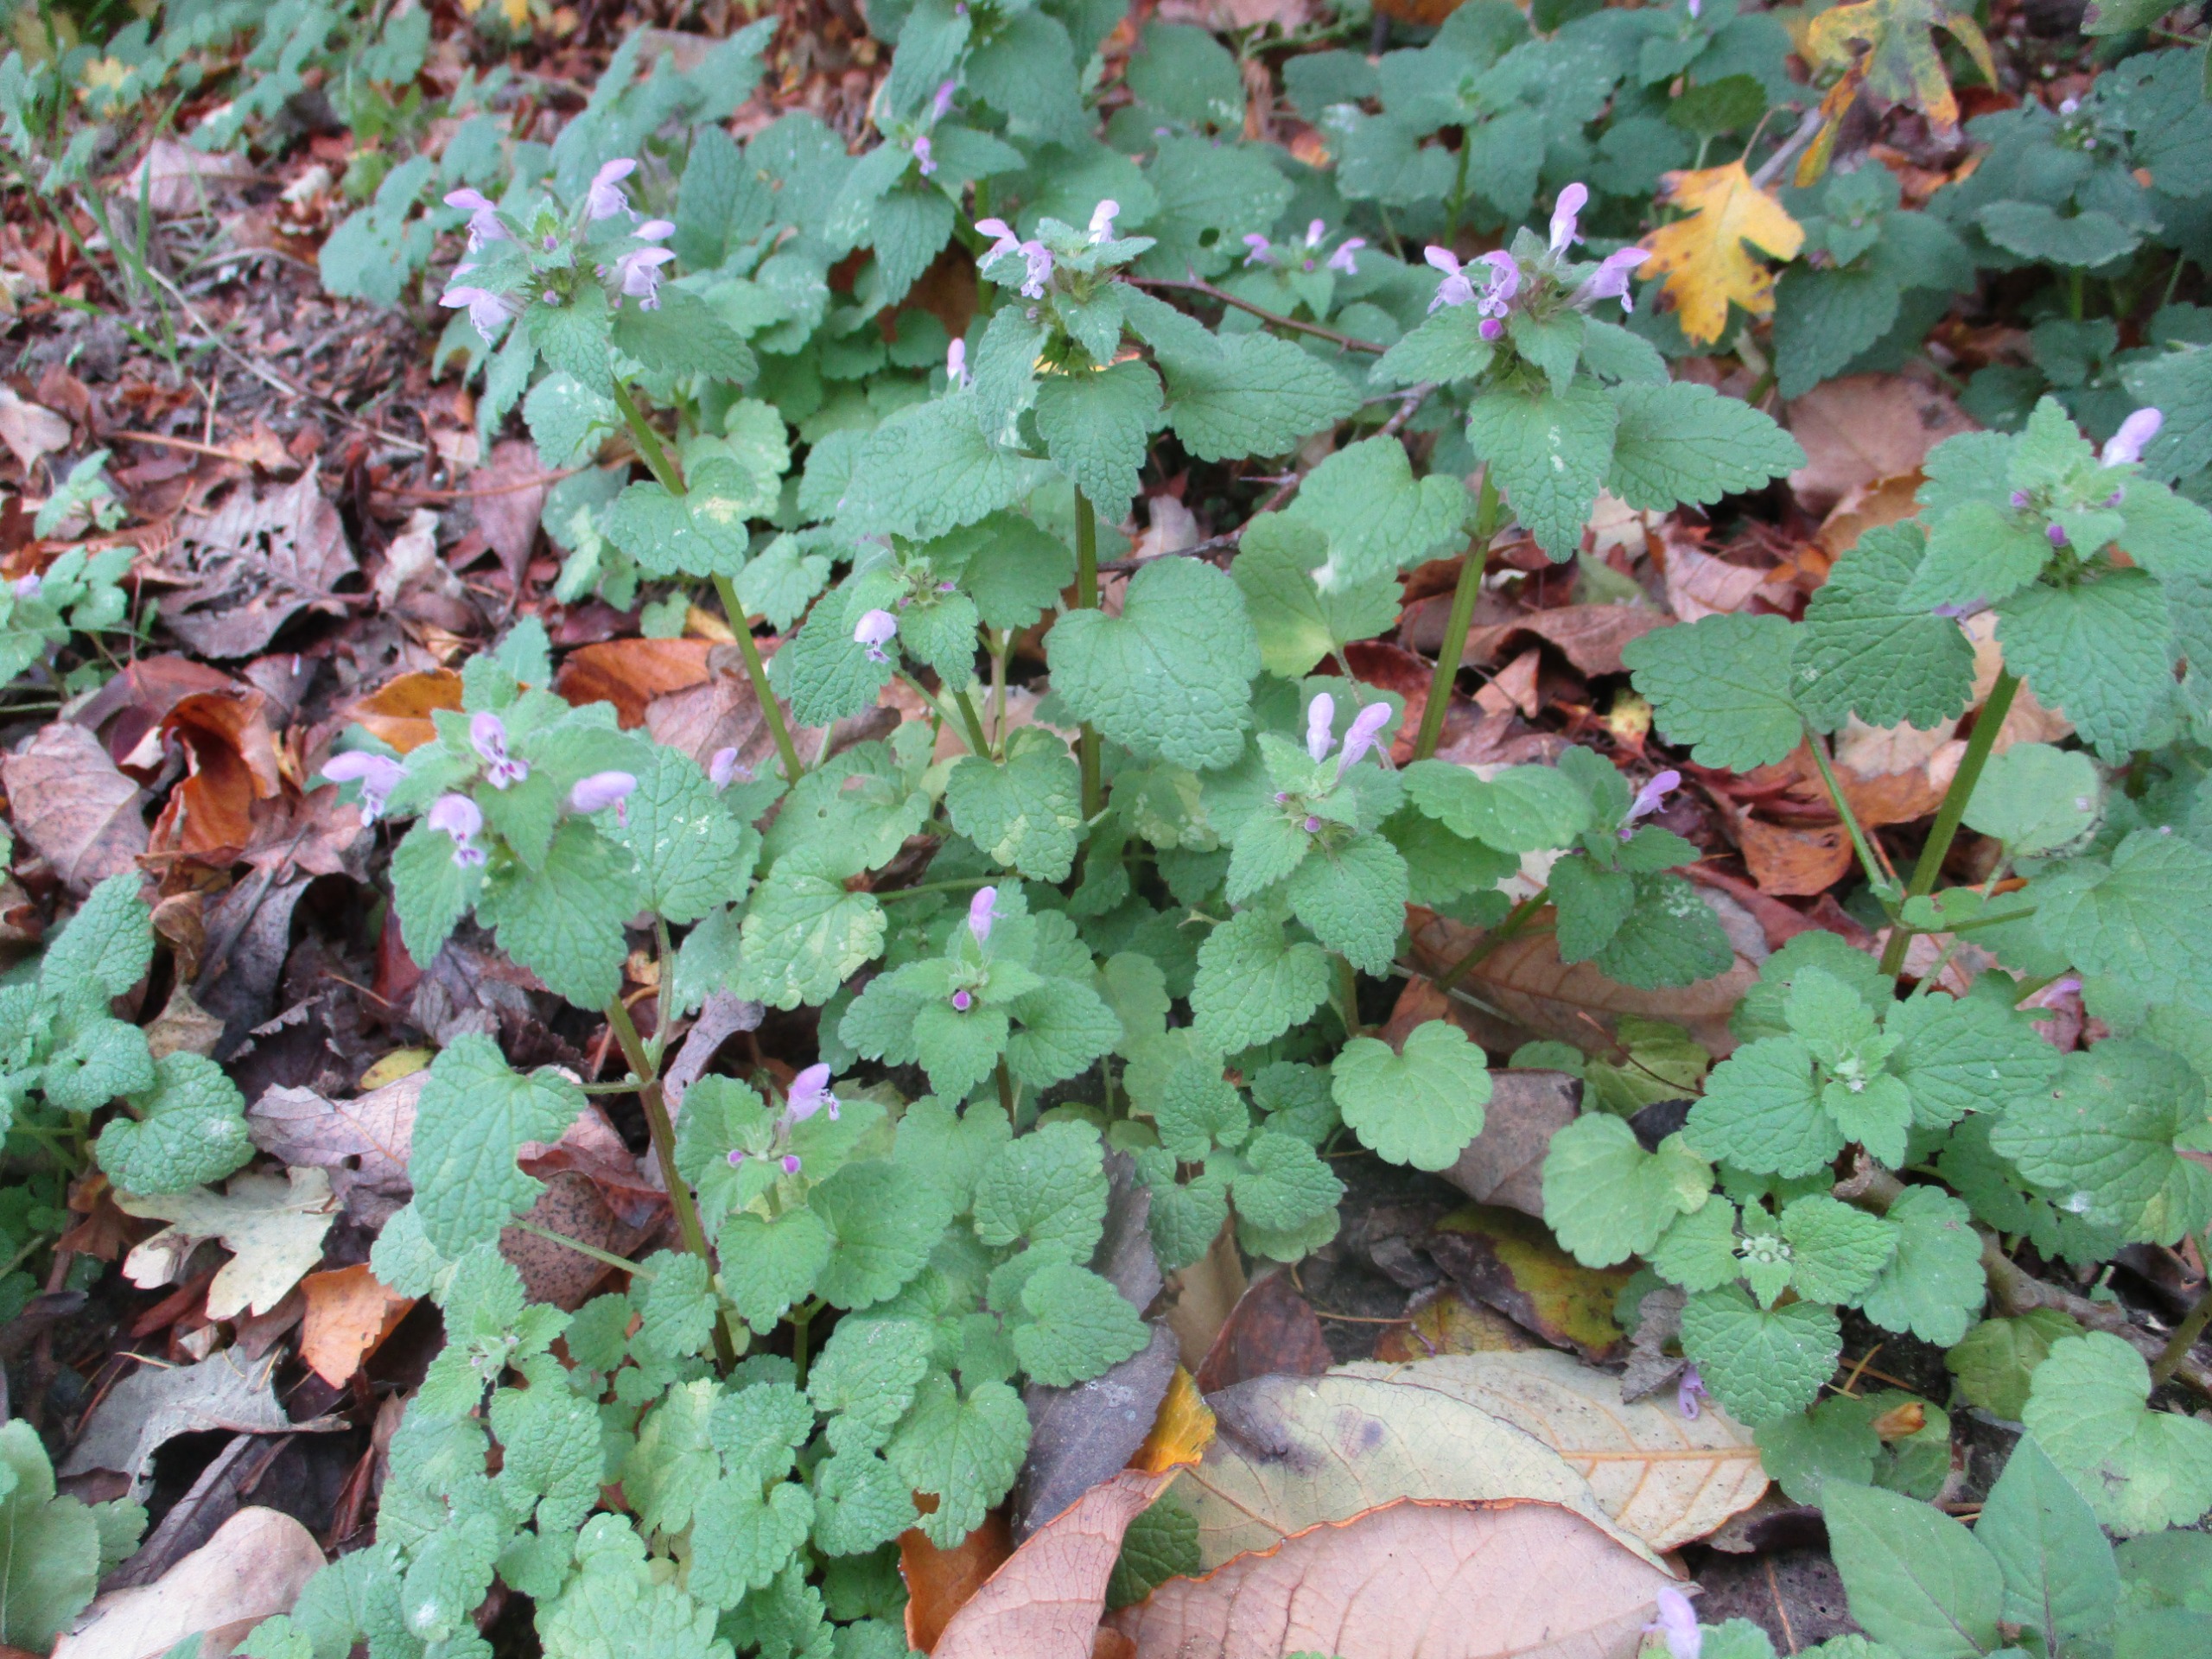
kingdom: Plantae
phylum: Tracheophyta
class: Magnoliopsida
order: Lamiales
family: Lamiaceae
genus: Lamium
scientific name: Lamium purpureum
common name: Rød tvetand
